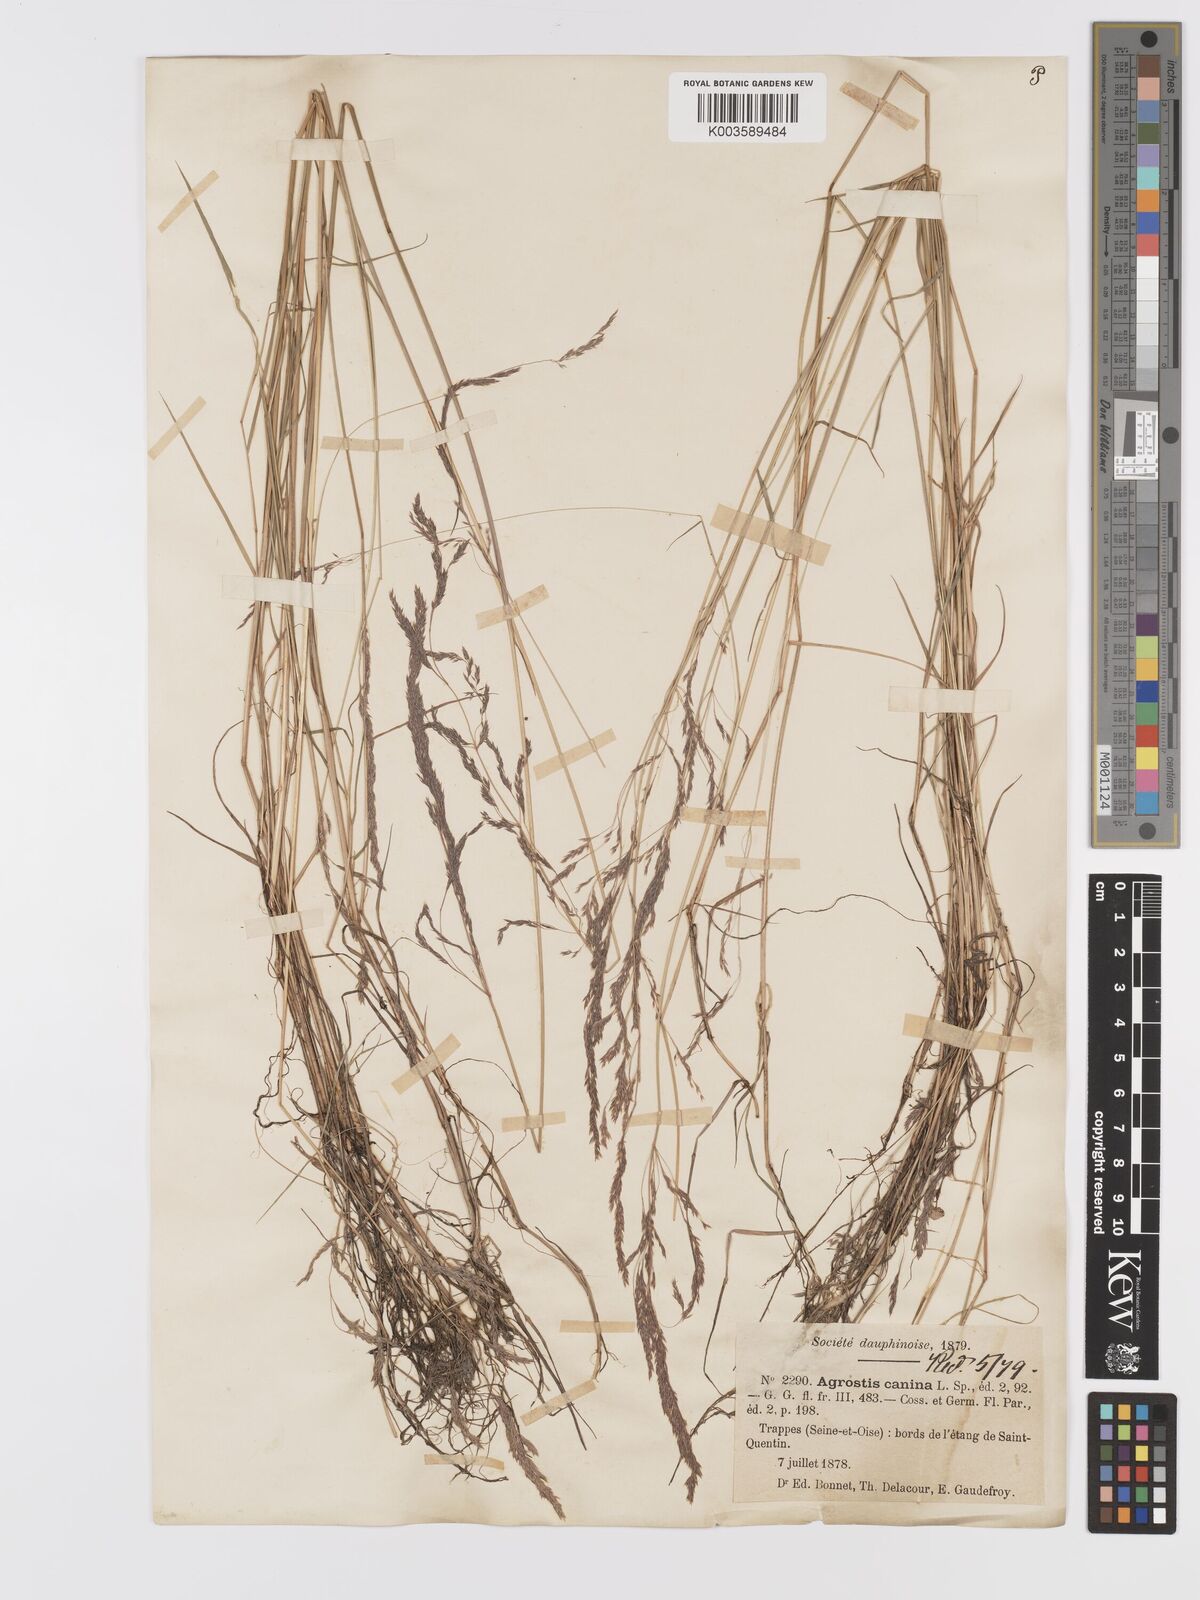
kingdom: Plantae
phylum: Tracheophyta
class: Liliopsida
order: Poales
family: Poaceae
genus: Agrostis
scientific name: Agrostis canina
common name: Velvet bent
